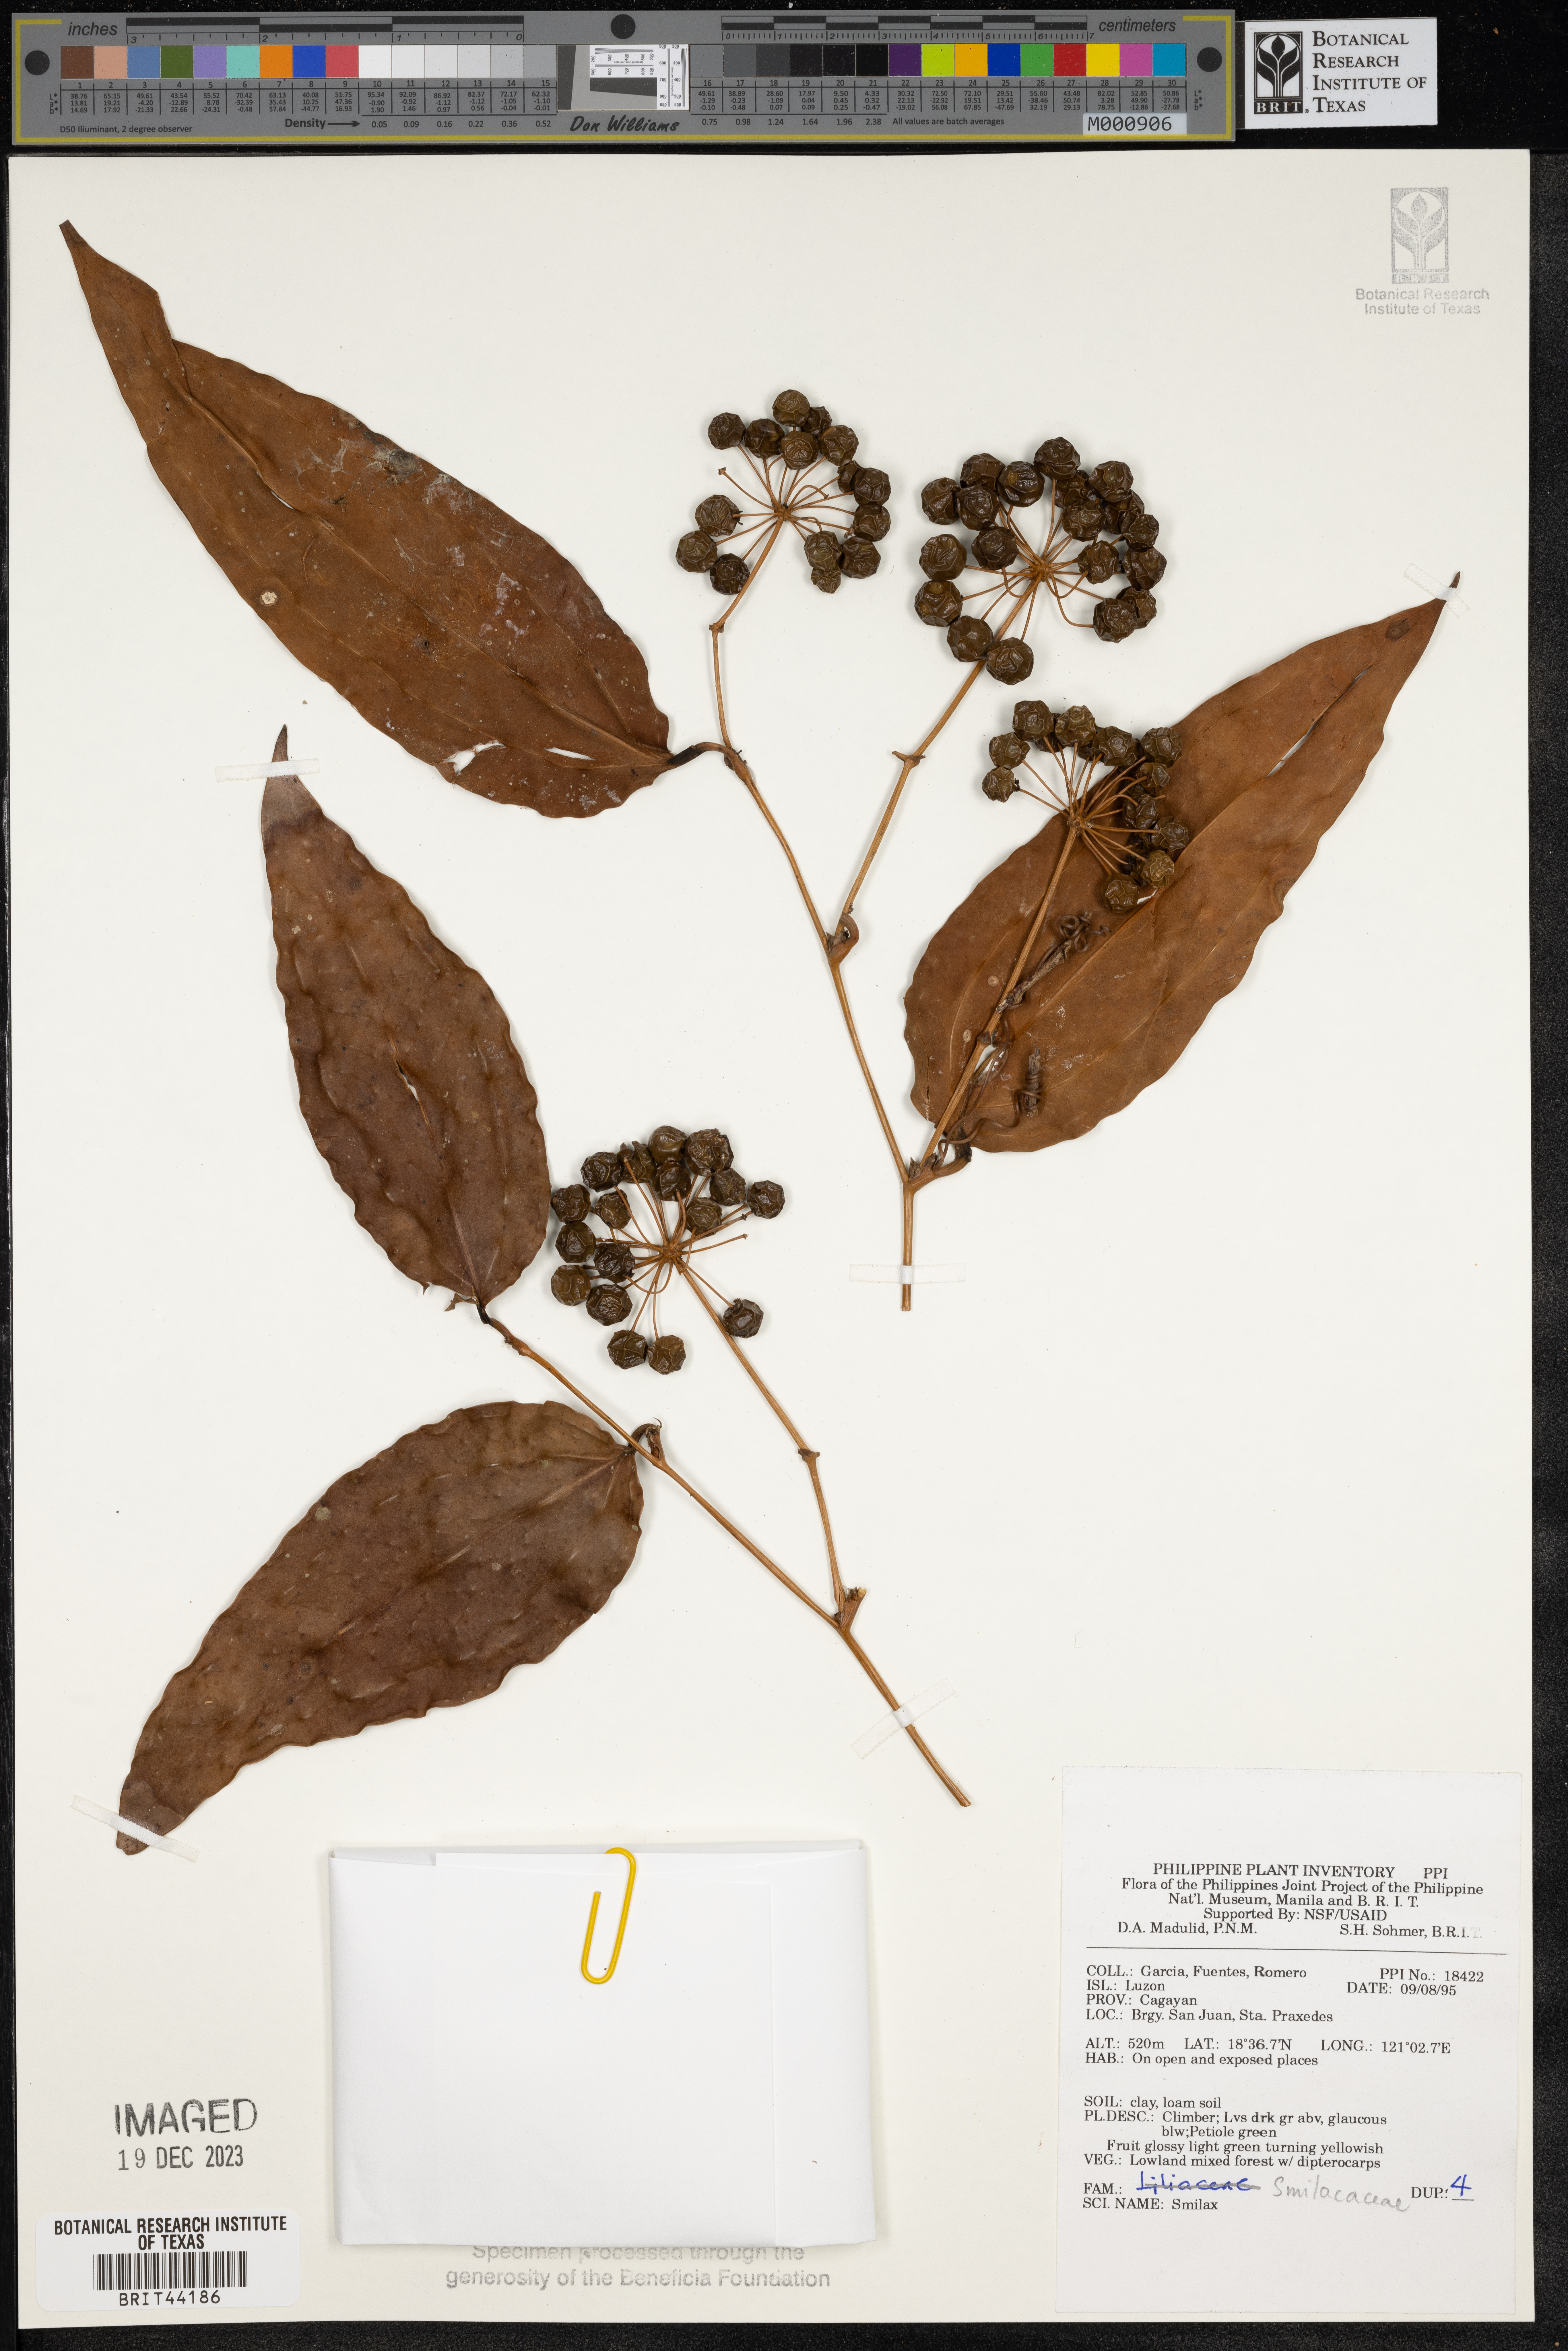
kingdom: Plantae
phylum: Tracheophyta
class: Liliopsida
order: Liliales
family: Smilacaceae
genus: Smilax
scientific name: Smilax
